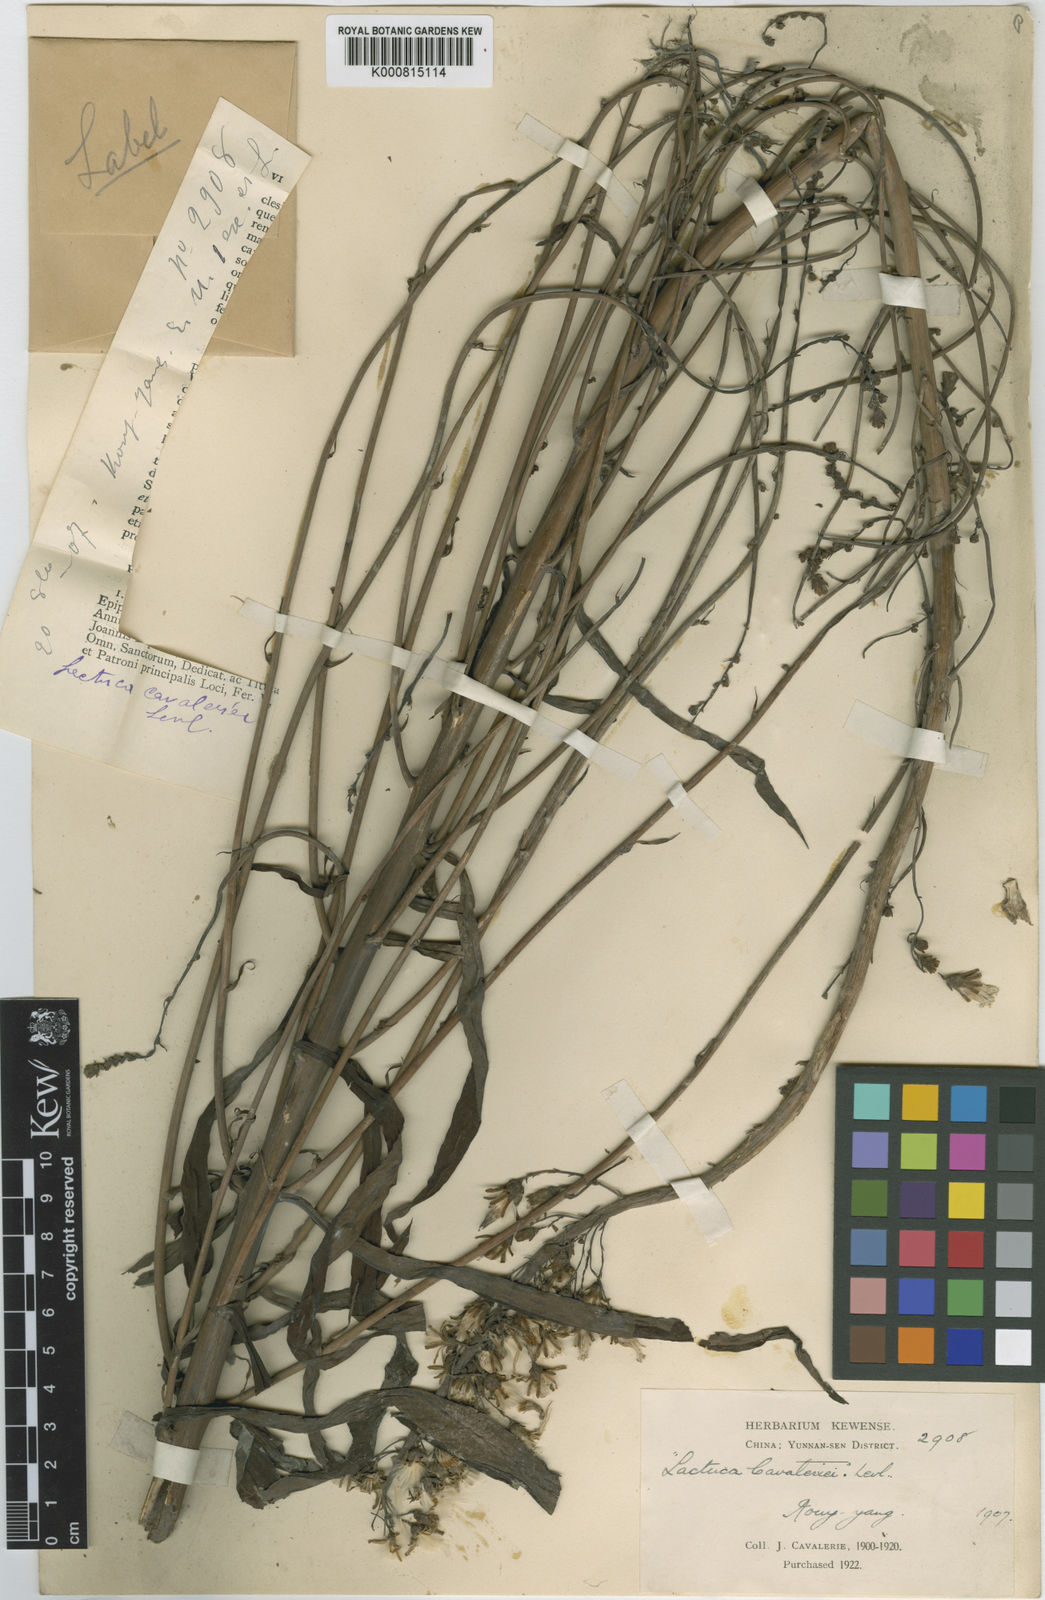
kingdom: Plantae
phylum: Tracheophyta
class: Magnoliopsida
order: Asterales
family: Asteraceae
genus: Lactuca
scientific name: Lactuca indica
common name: Wild lettuce
